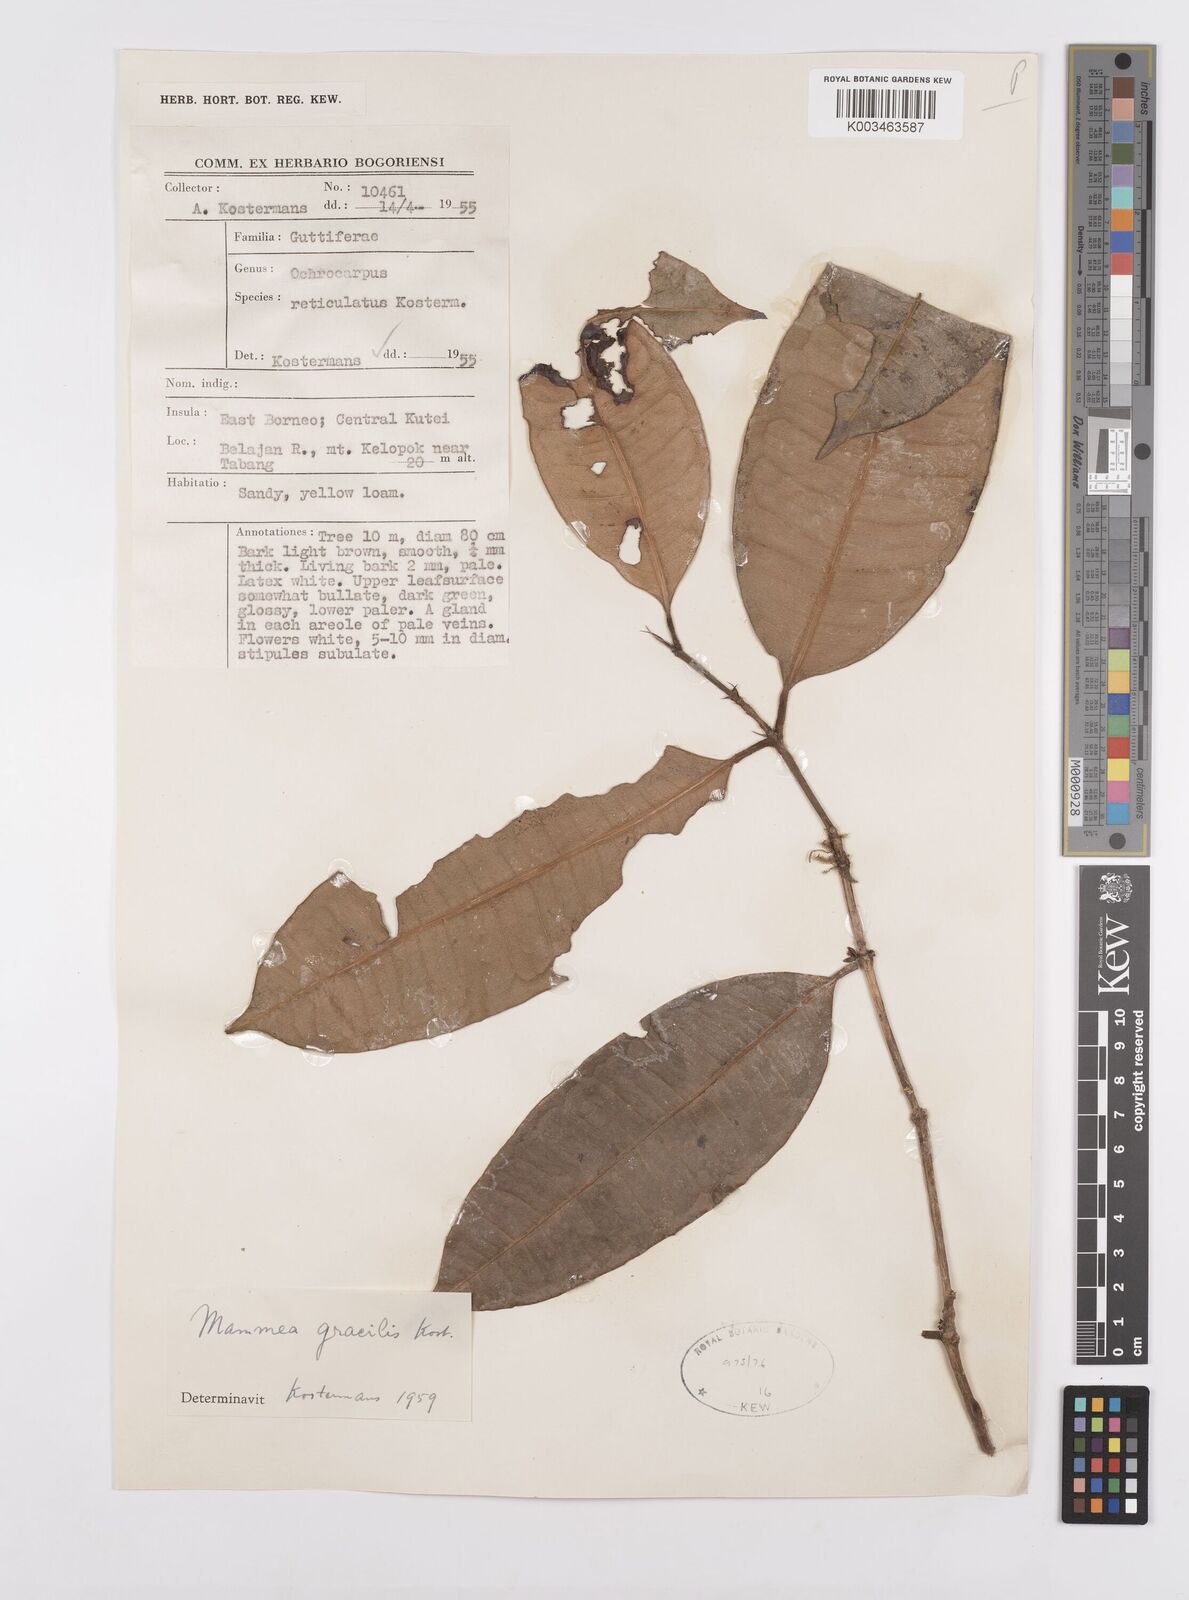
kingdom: Plantae
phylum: Tracheophyta
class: Magnoliopsida
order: Malpighiales
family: Calophyllaceae
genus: Mammea
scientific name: Mammea reticulata
